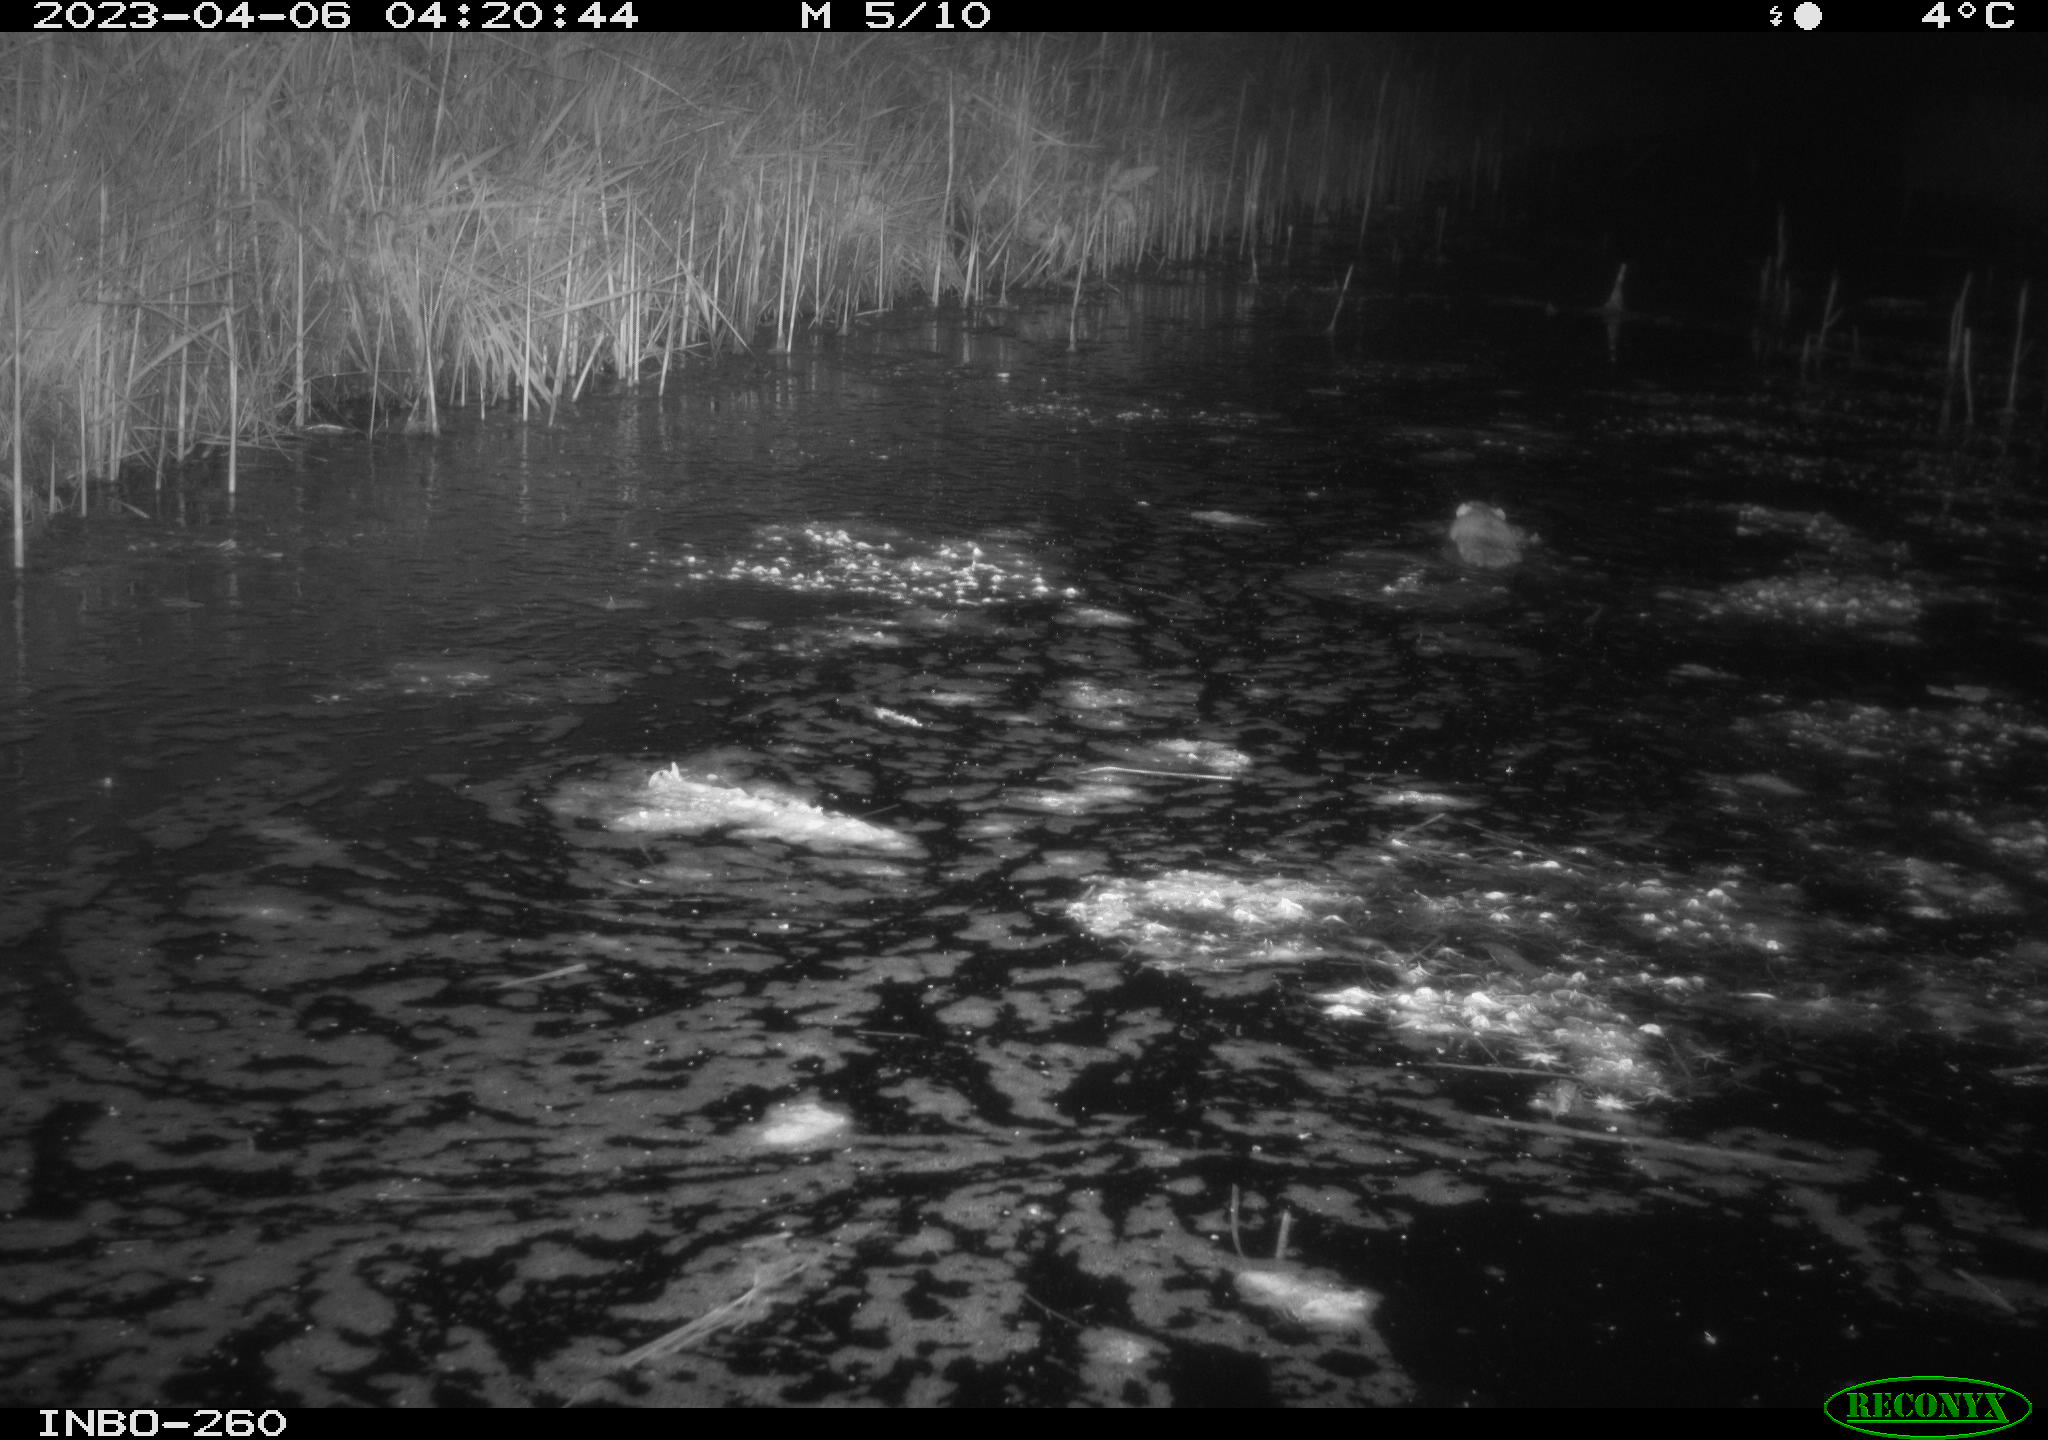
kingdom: Animalia
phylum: Chordata
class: Mammalia
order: Rodentia
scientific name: Rodentia
